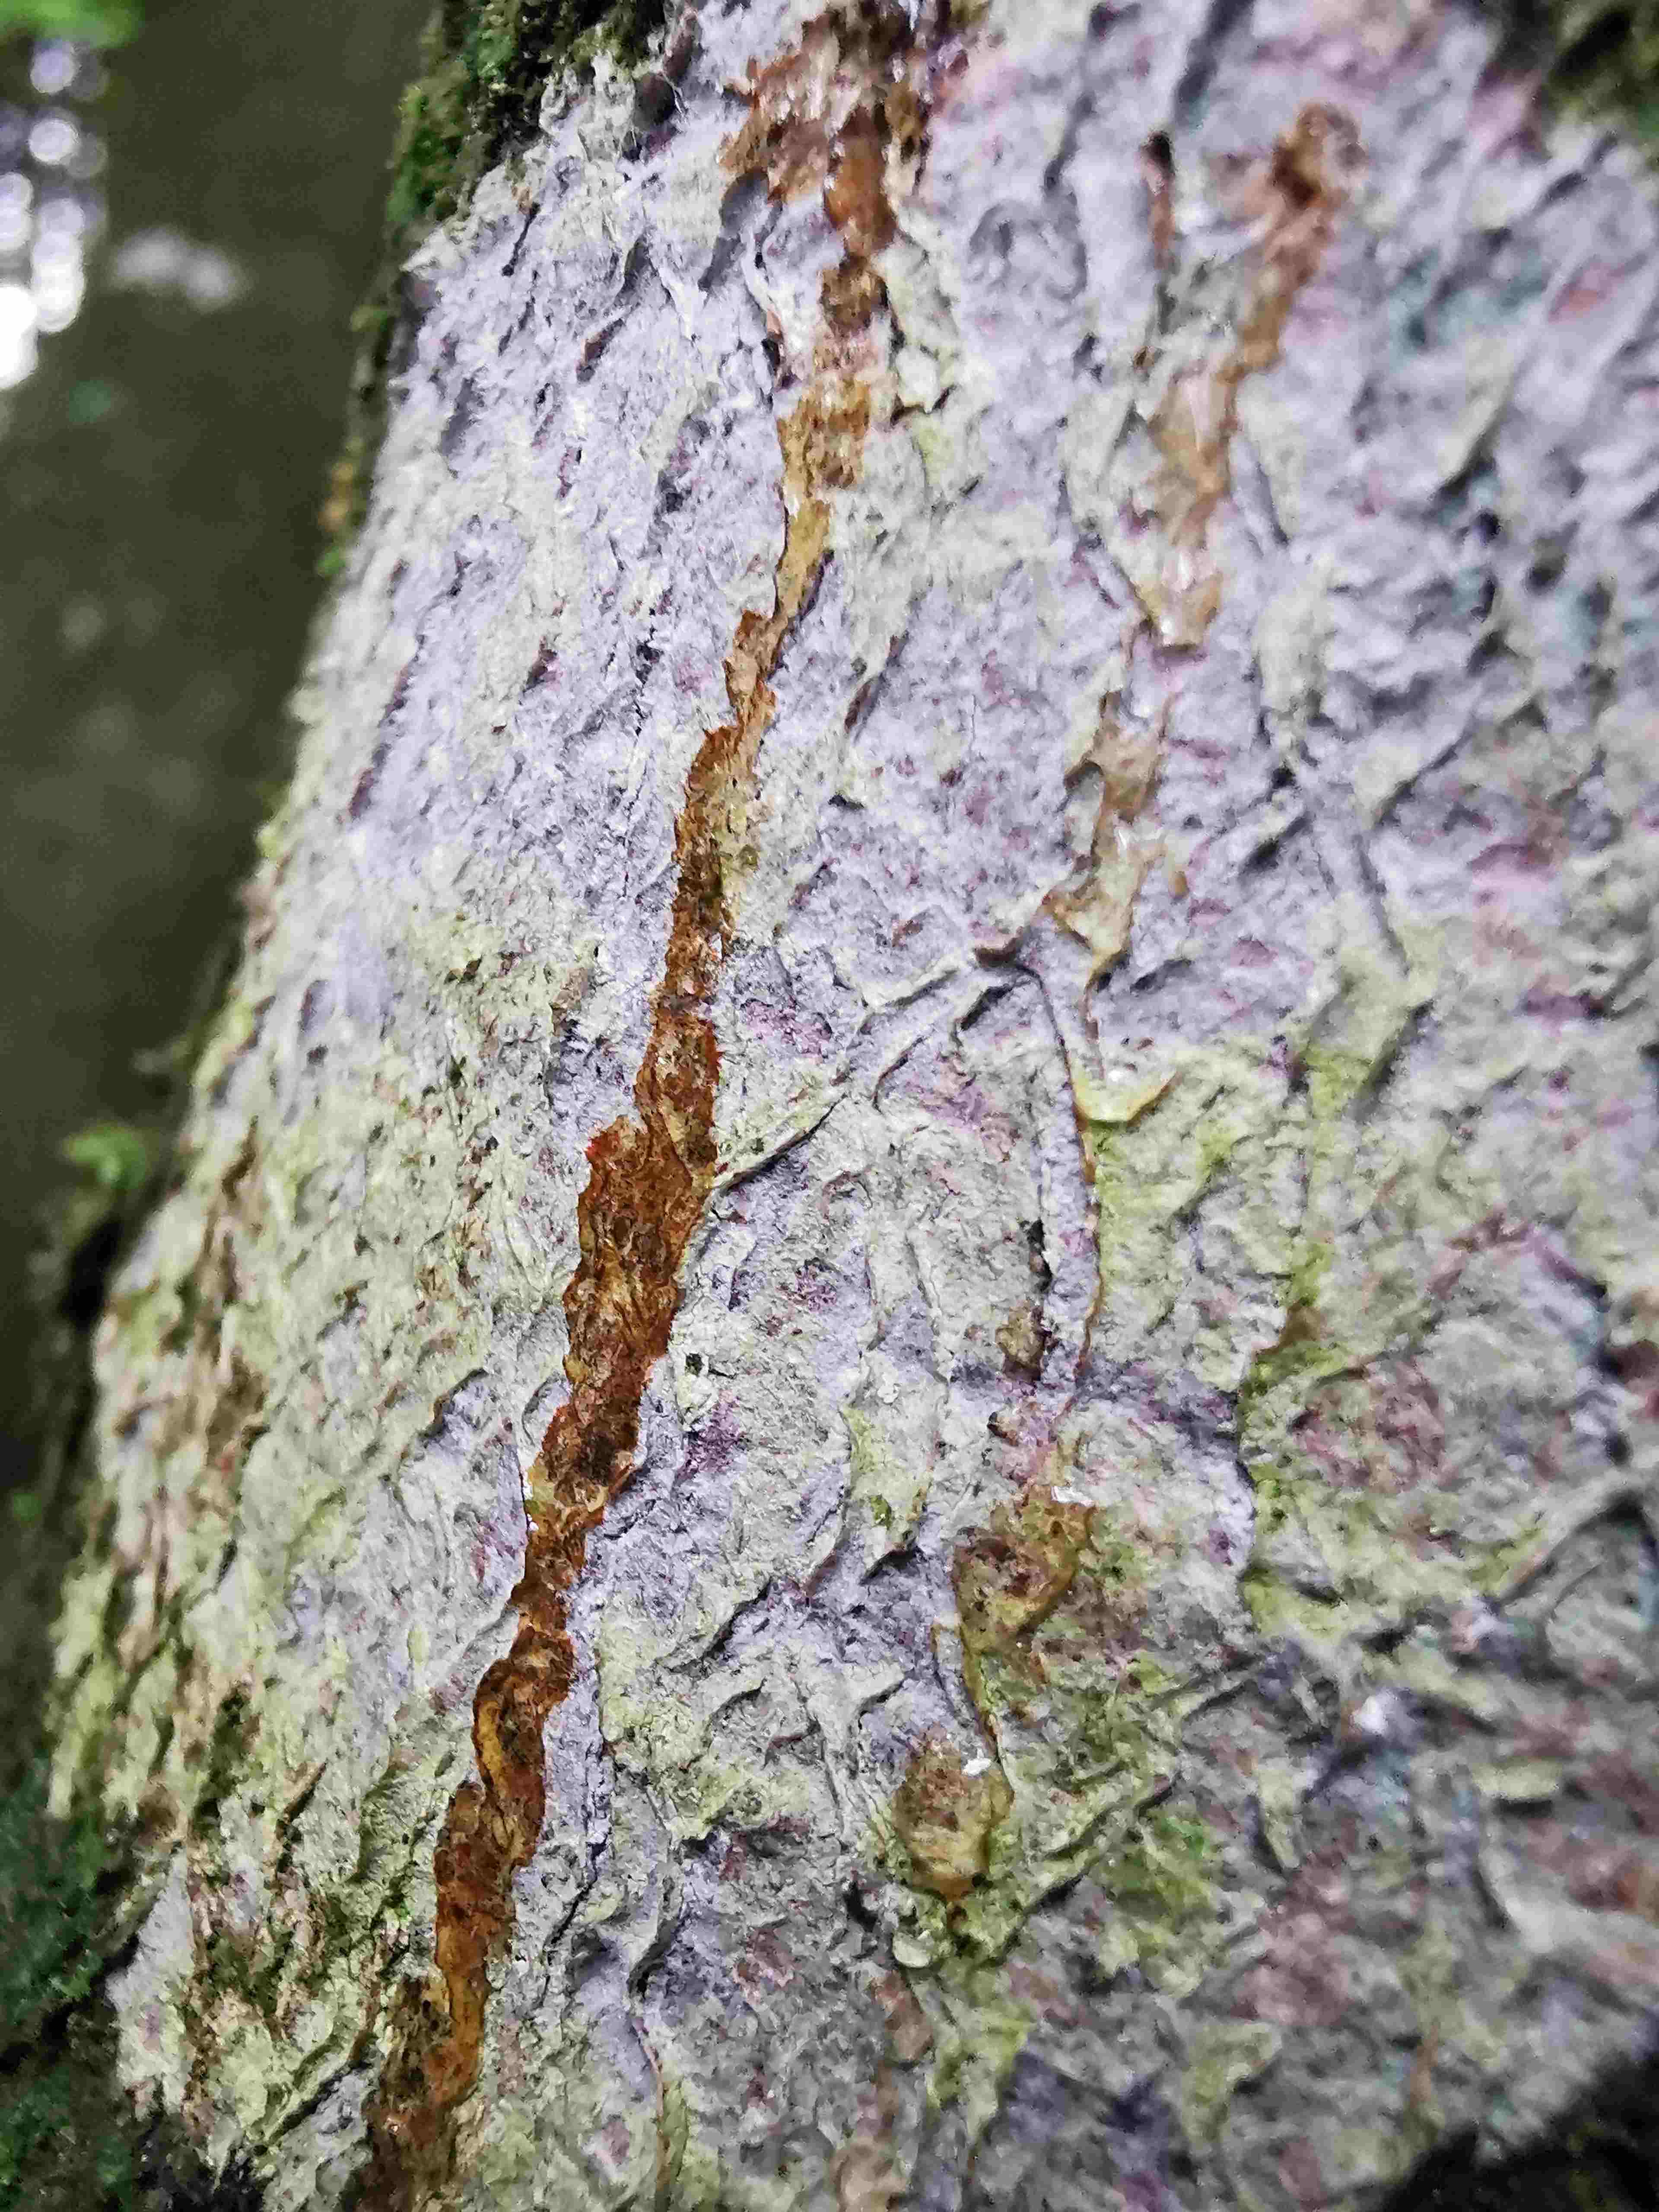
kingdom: Fungi
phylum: Ascomycota
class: Lecanoromycetes
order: Ostropales
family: Phlyctidaceae
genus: Phlyctis
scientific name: Phlyctis argena
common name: almindelig sølvlav
